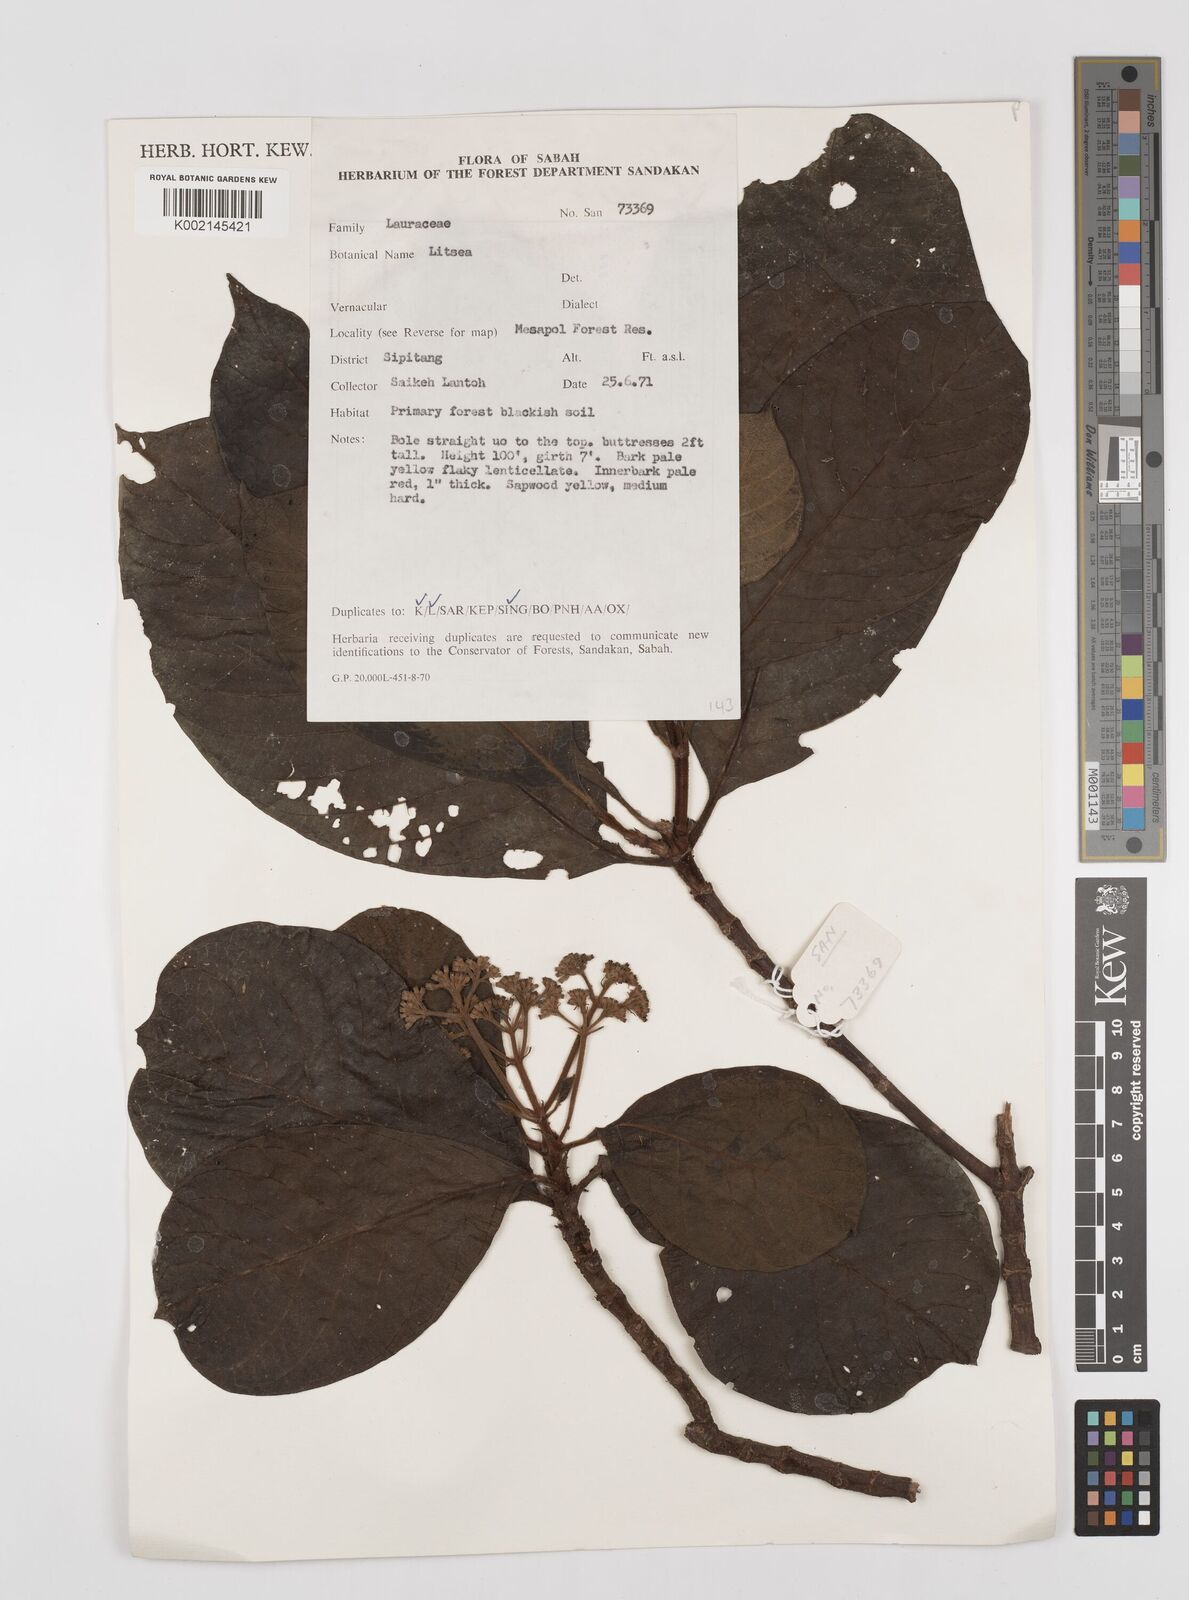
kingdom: Plantae
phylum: Tracheophyta
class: Magnoliopsida
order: Laurales
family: Lauraceae
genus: Litsea
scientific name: Litsea
